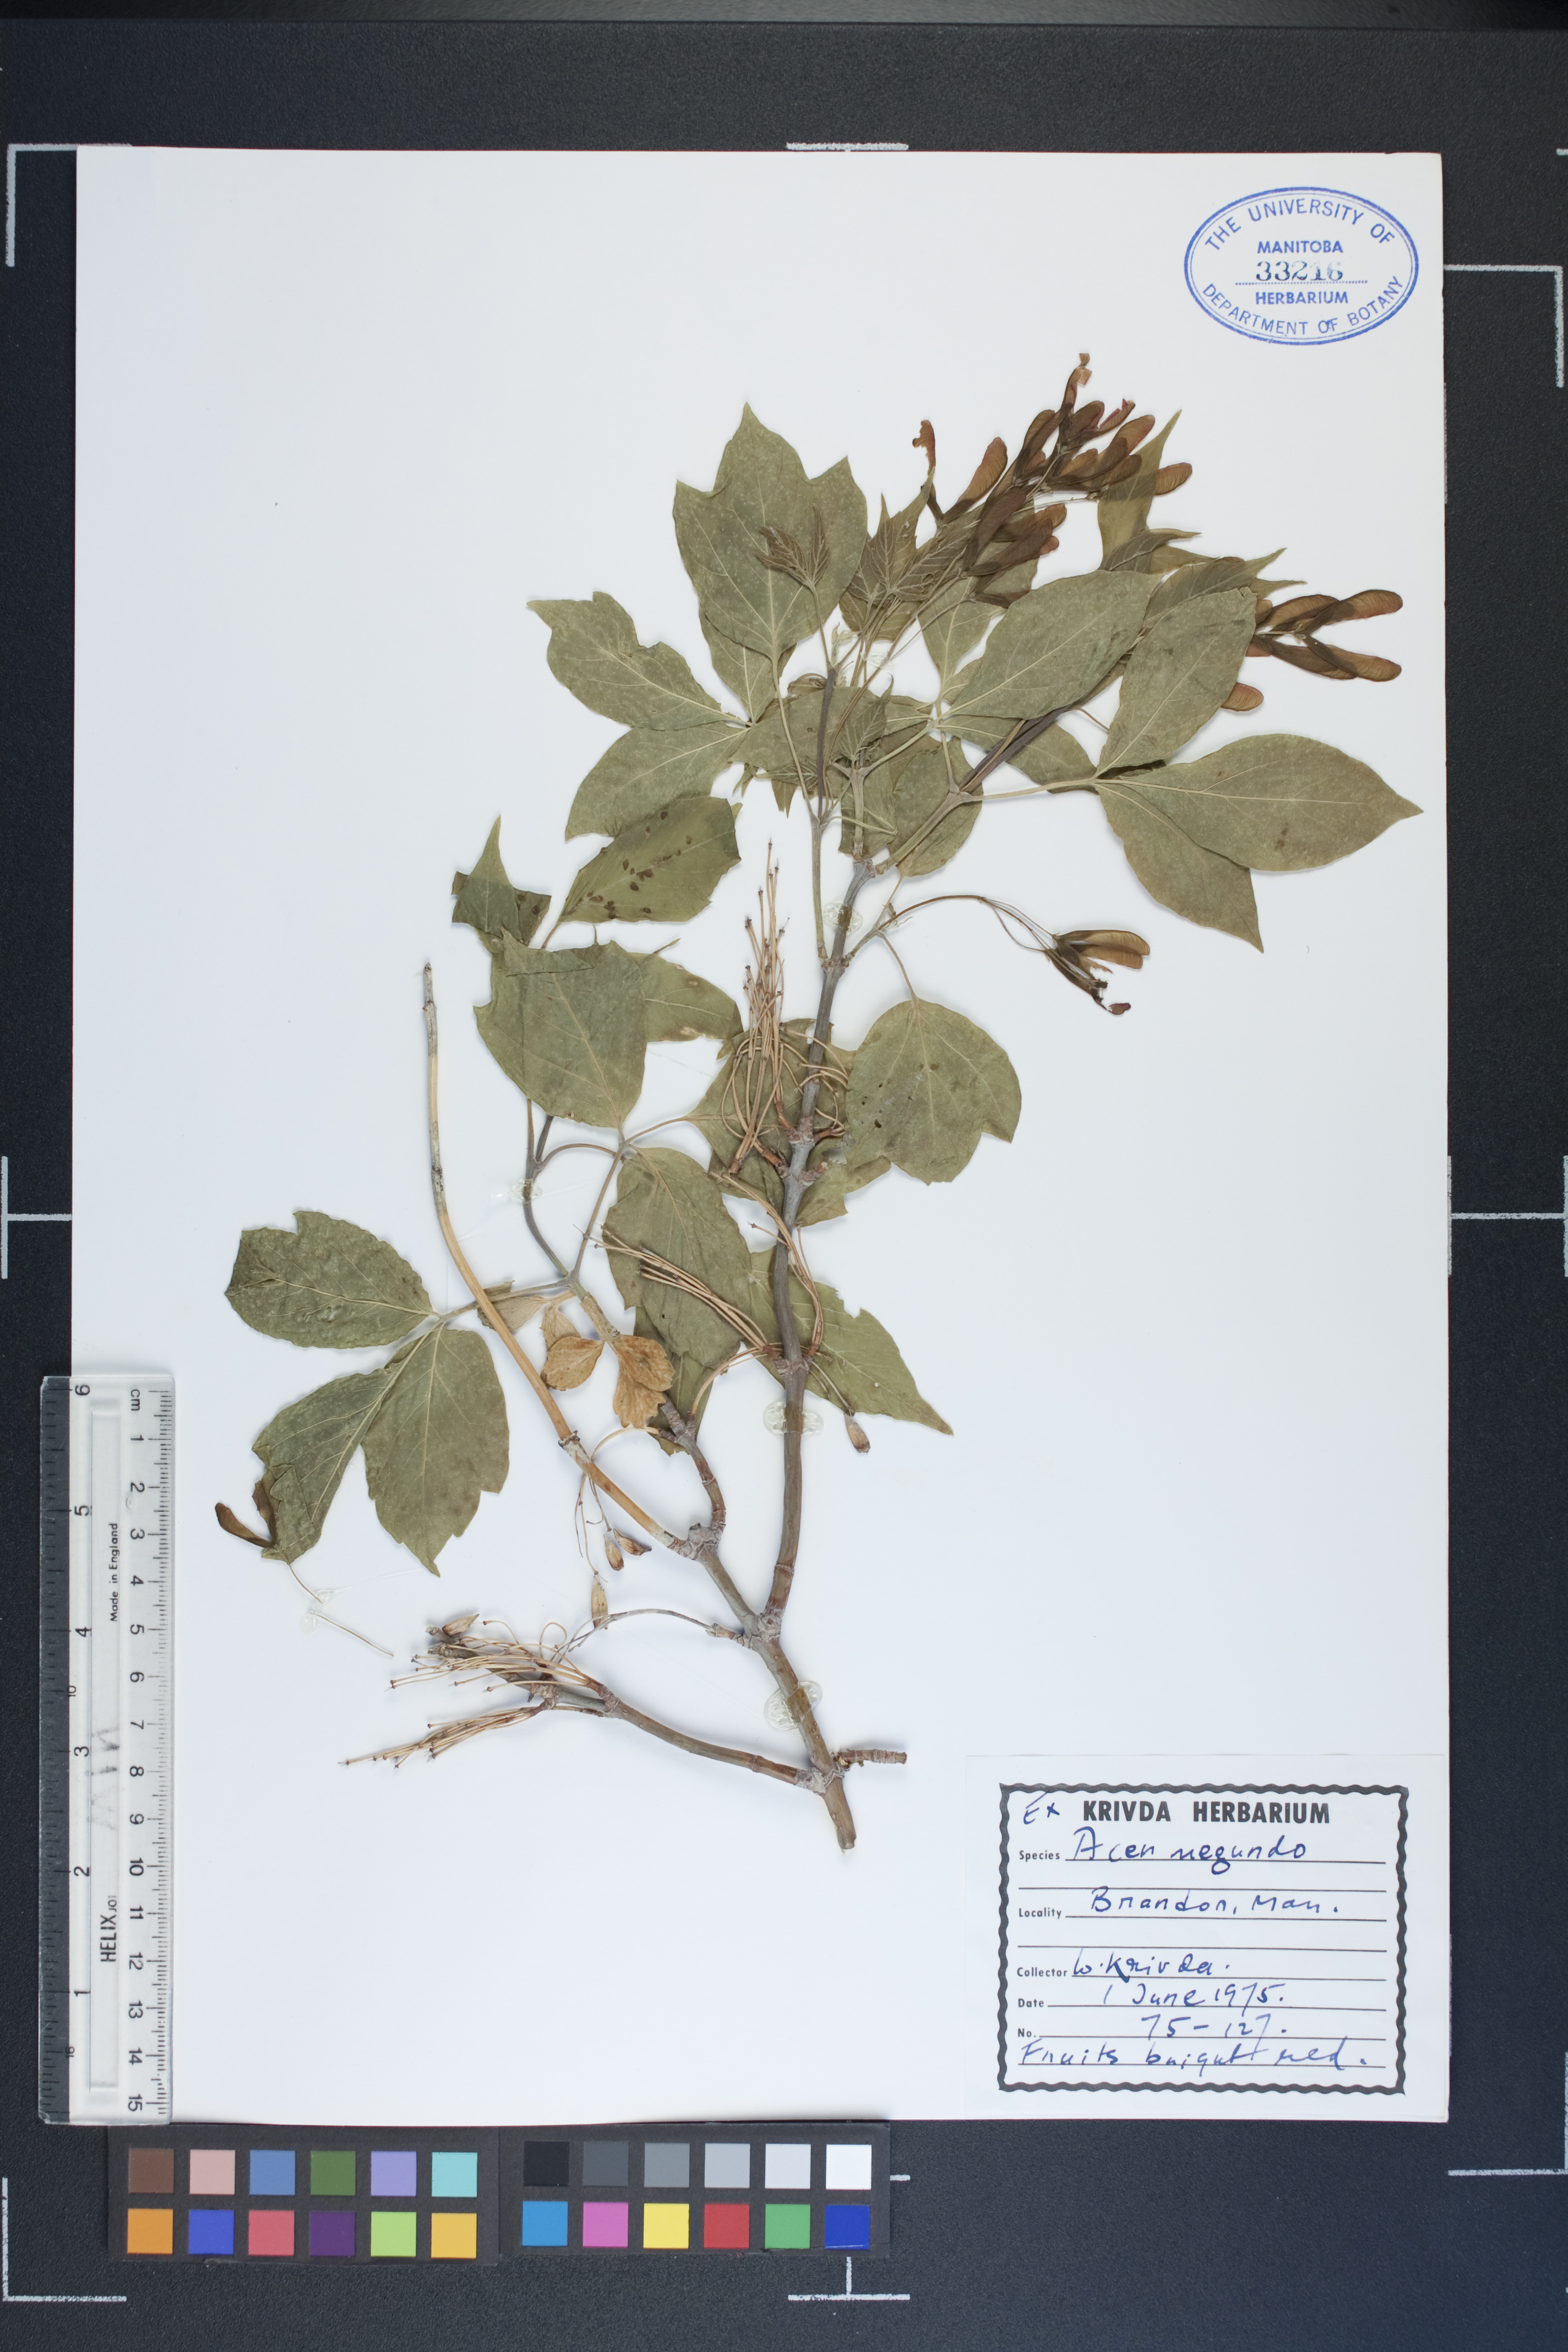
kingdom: Plantae
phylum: Tracheophyta
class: Magnoliopsida
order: Sapindales
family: Sapindaceae
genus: Acer
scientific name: Acer negundo
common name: Ashleaf maple
